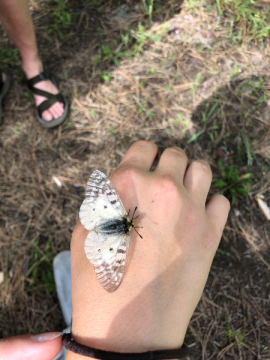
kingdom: Animalia
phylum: Arthropoda
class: Insecta
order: Lepidoptera
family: Papilionidae
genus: Parnassius
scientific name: Parnassius clodius
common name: Clodius Parnassian
